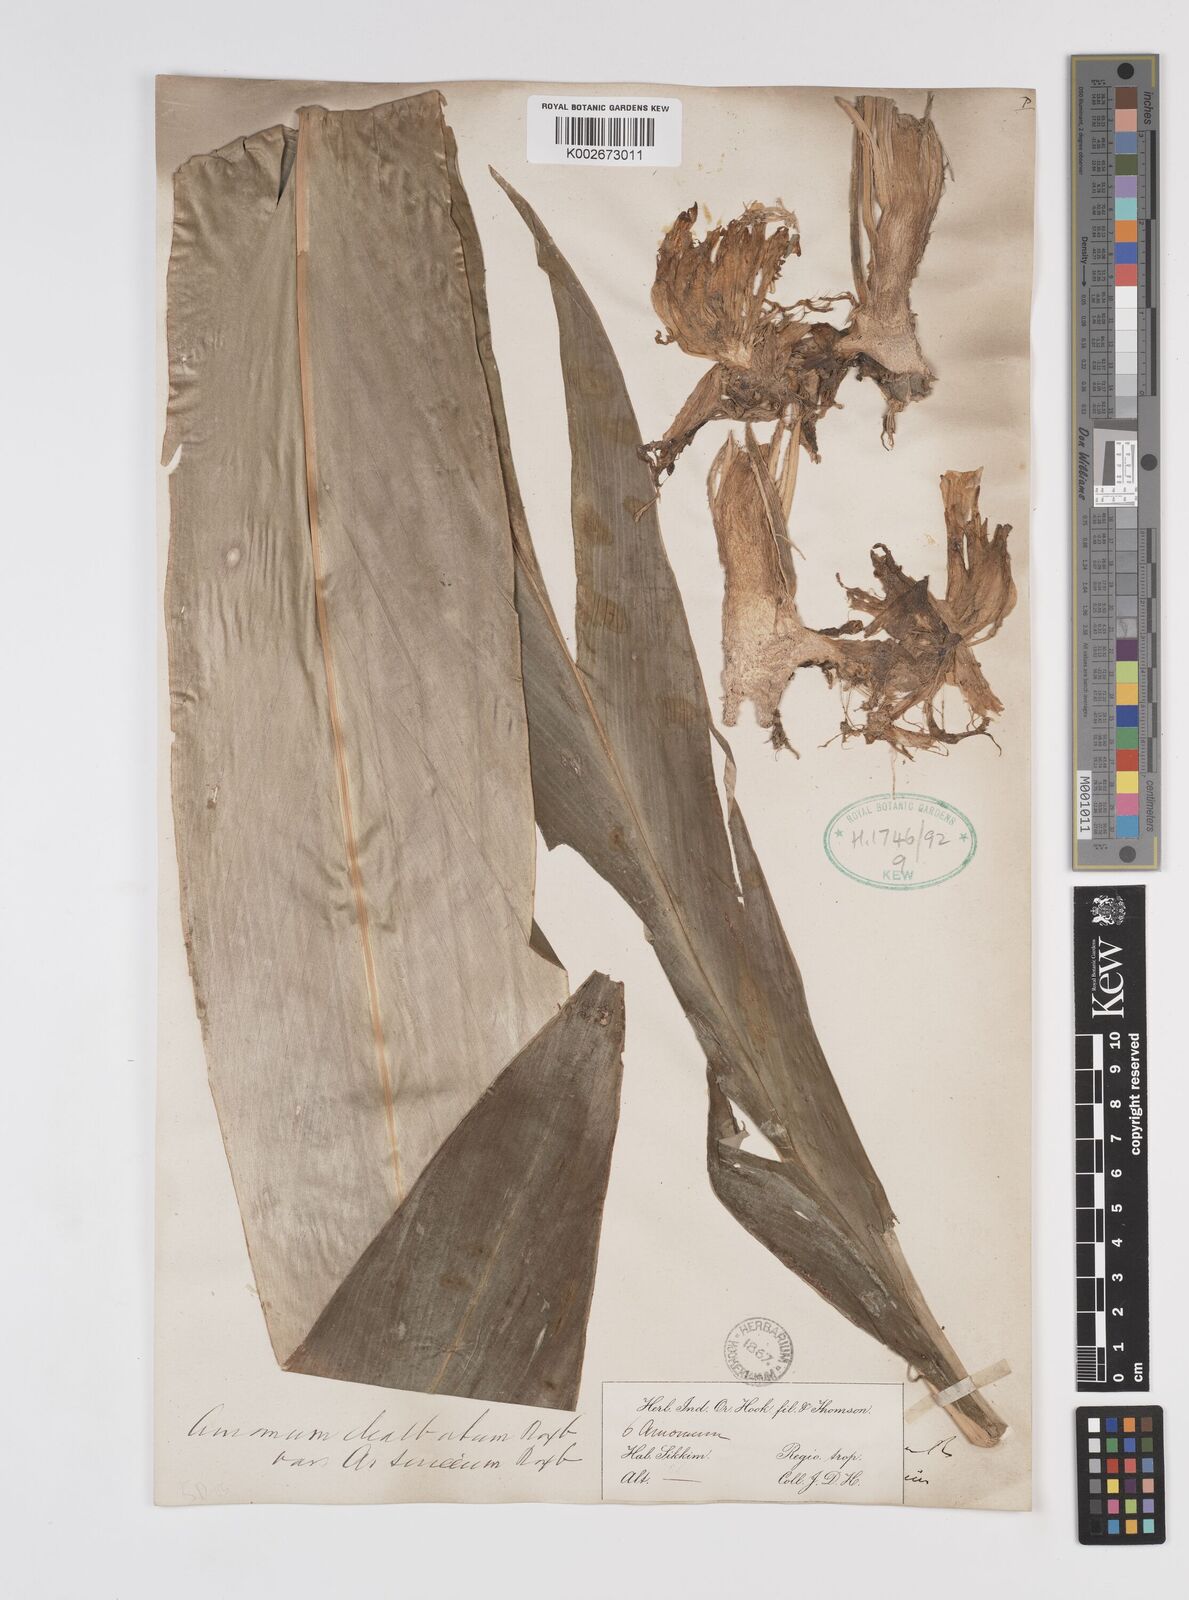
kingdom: Plantae
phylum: Tracheophyta
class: Liliopsida
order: Zingiberales
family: Zingiberaceae
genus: Amomum
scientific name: Amomum dealbatum
